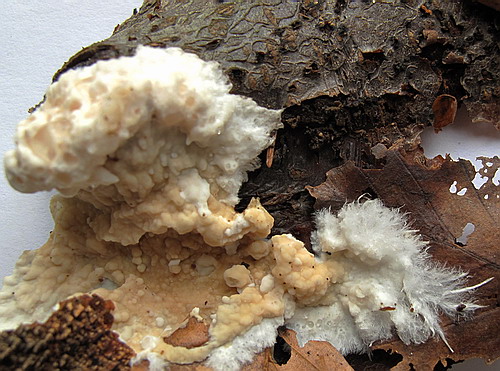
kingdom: Fungi
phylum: Basidiomycota
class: Agaricomycetes
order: Polyporales
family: Phanerochaetaceae
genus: Phanerochaete
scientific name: Phanerochaete laevis
